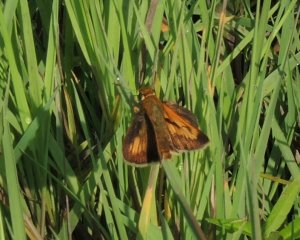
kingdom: Animalia
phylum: Arthropoda
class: Insecta
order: Lepidoptera
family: Hesperiidae
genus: Euphyes
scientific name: Euphyes conspicua
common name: Black Dash
